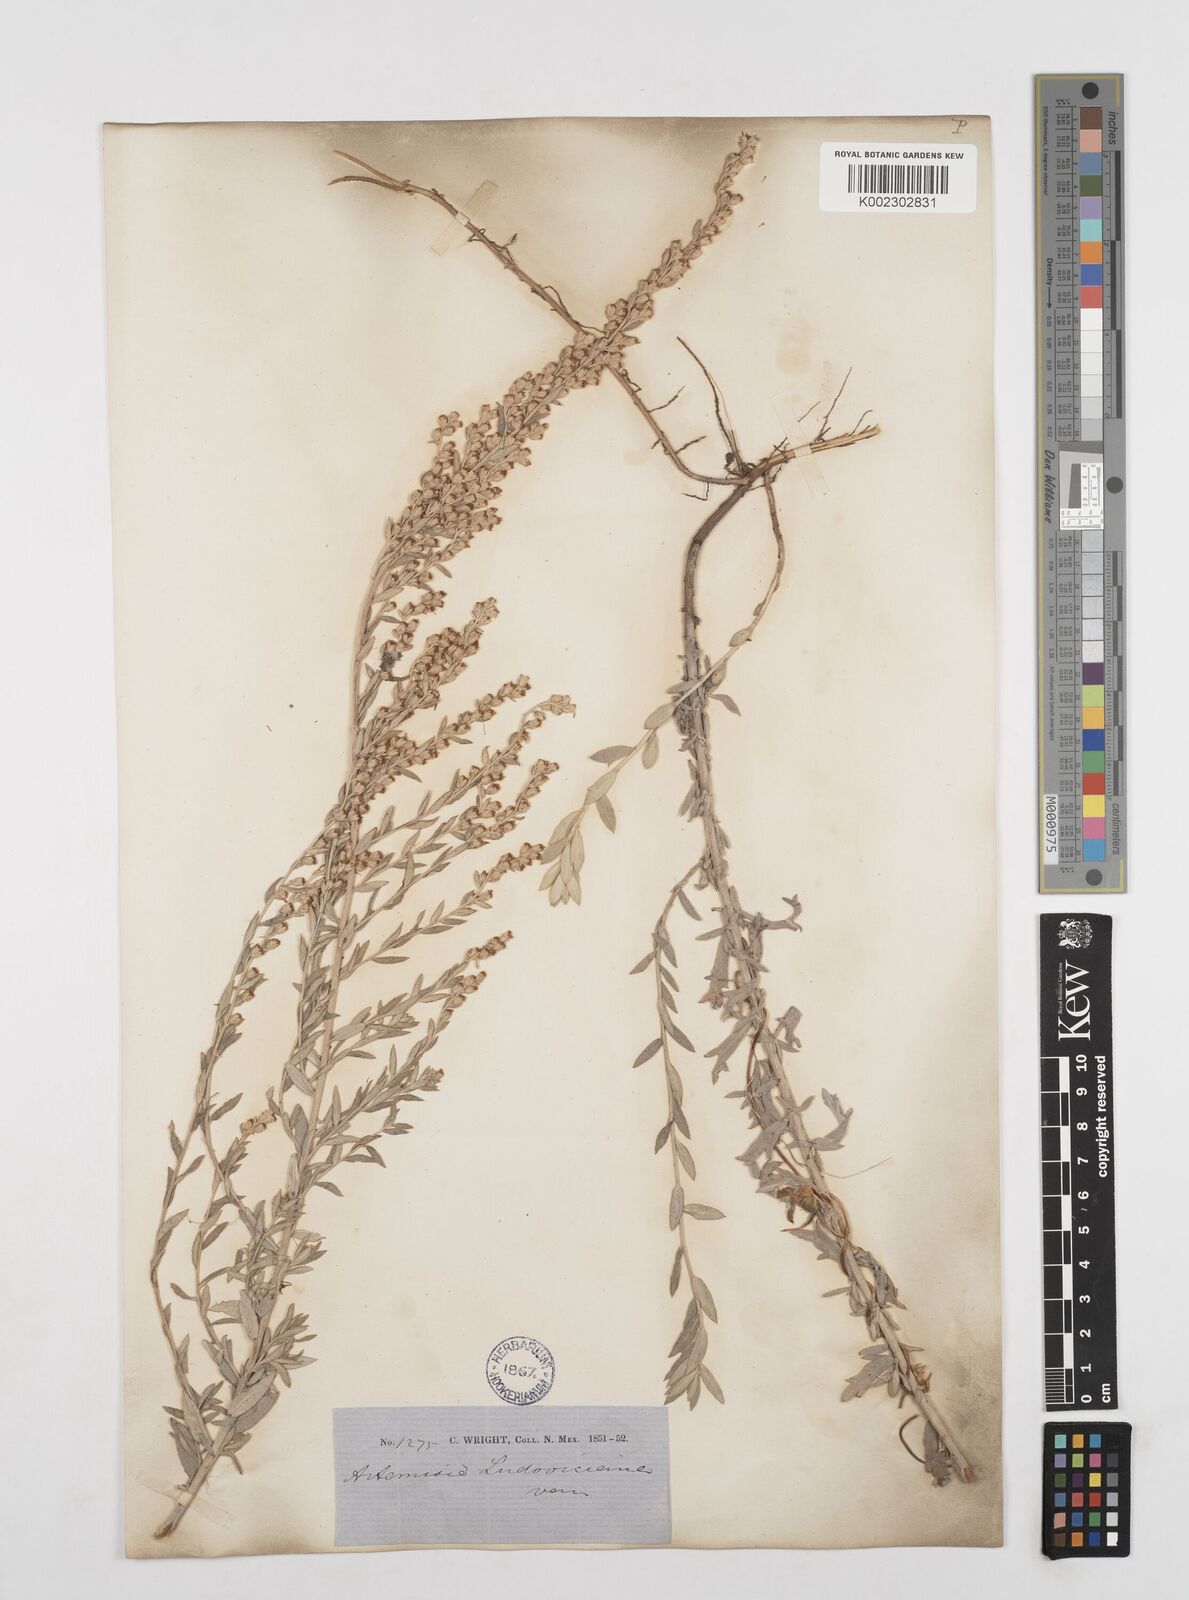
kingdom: Plantae
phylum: Tracheophyta
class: Magnoliopsida
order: Asterales
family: Asteraceae
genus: Artemisia
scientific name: Artemisia ludoviciana
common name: Western mugwort
